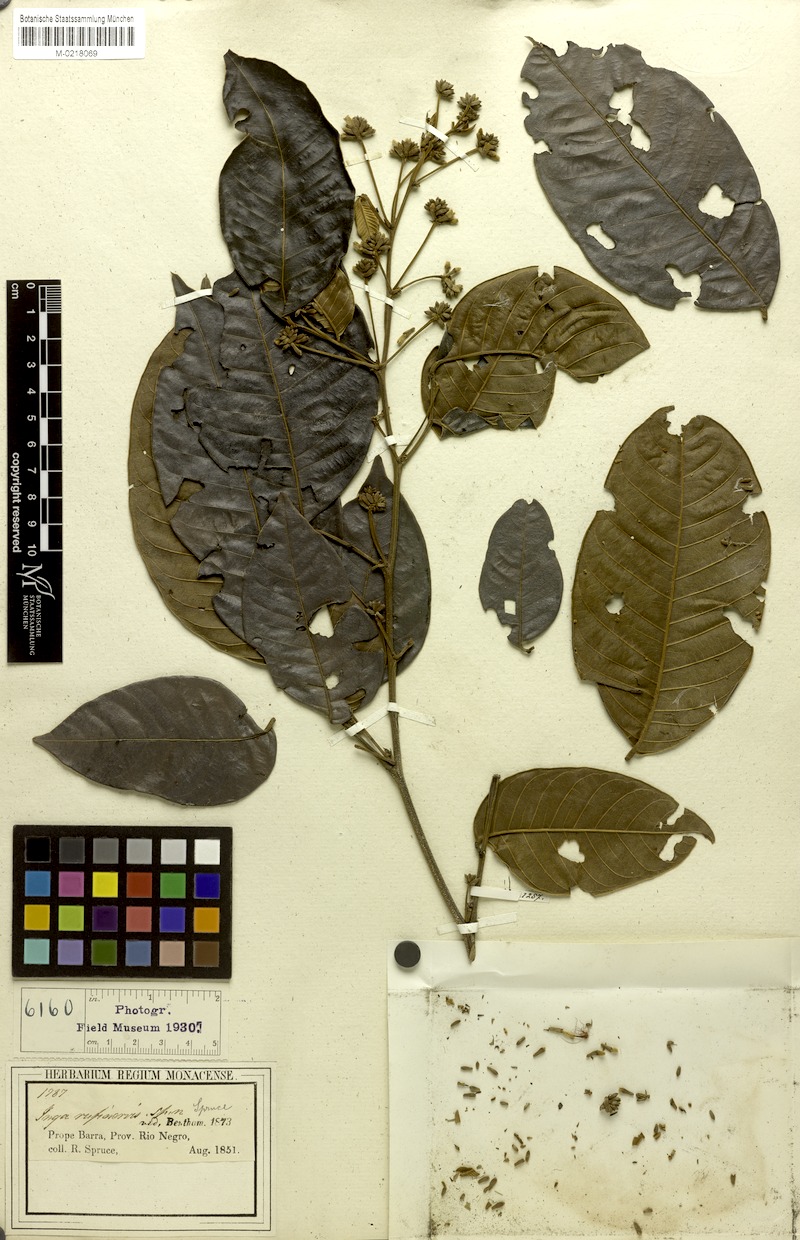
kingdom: Plantae
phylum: Tracheophyta
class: Magnoliopsida
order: Fabales
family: Fabaceae
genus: Inga
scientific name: Inga laevigata
